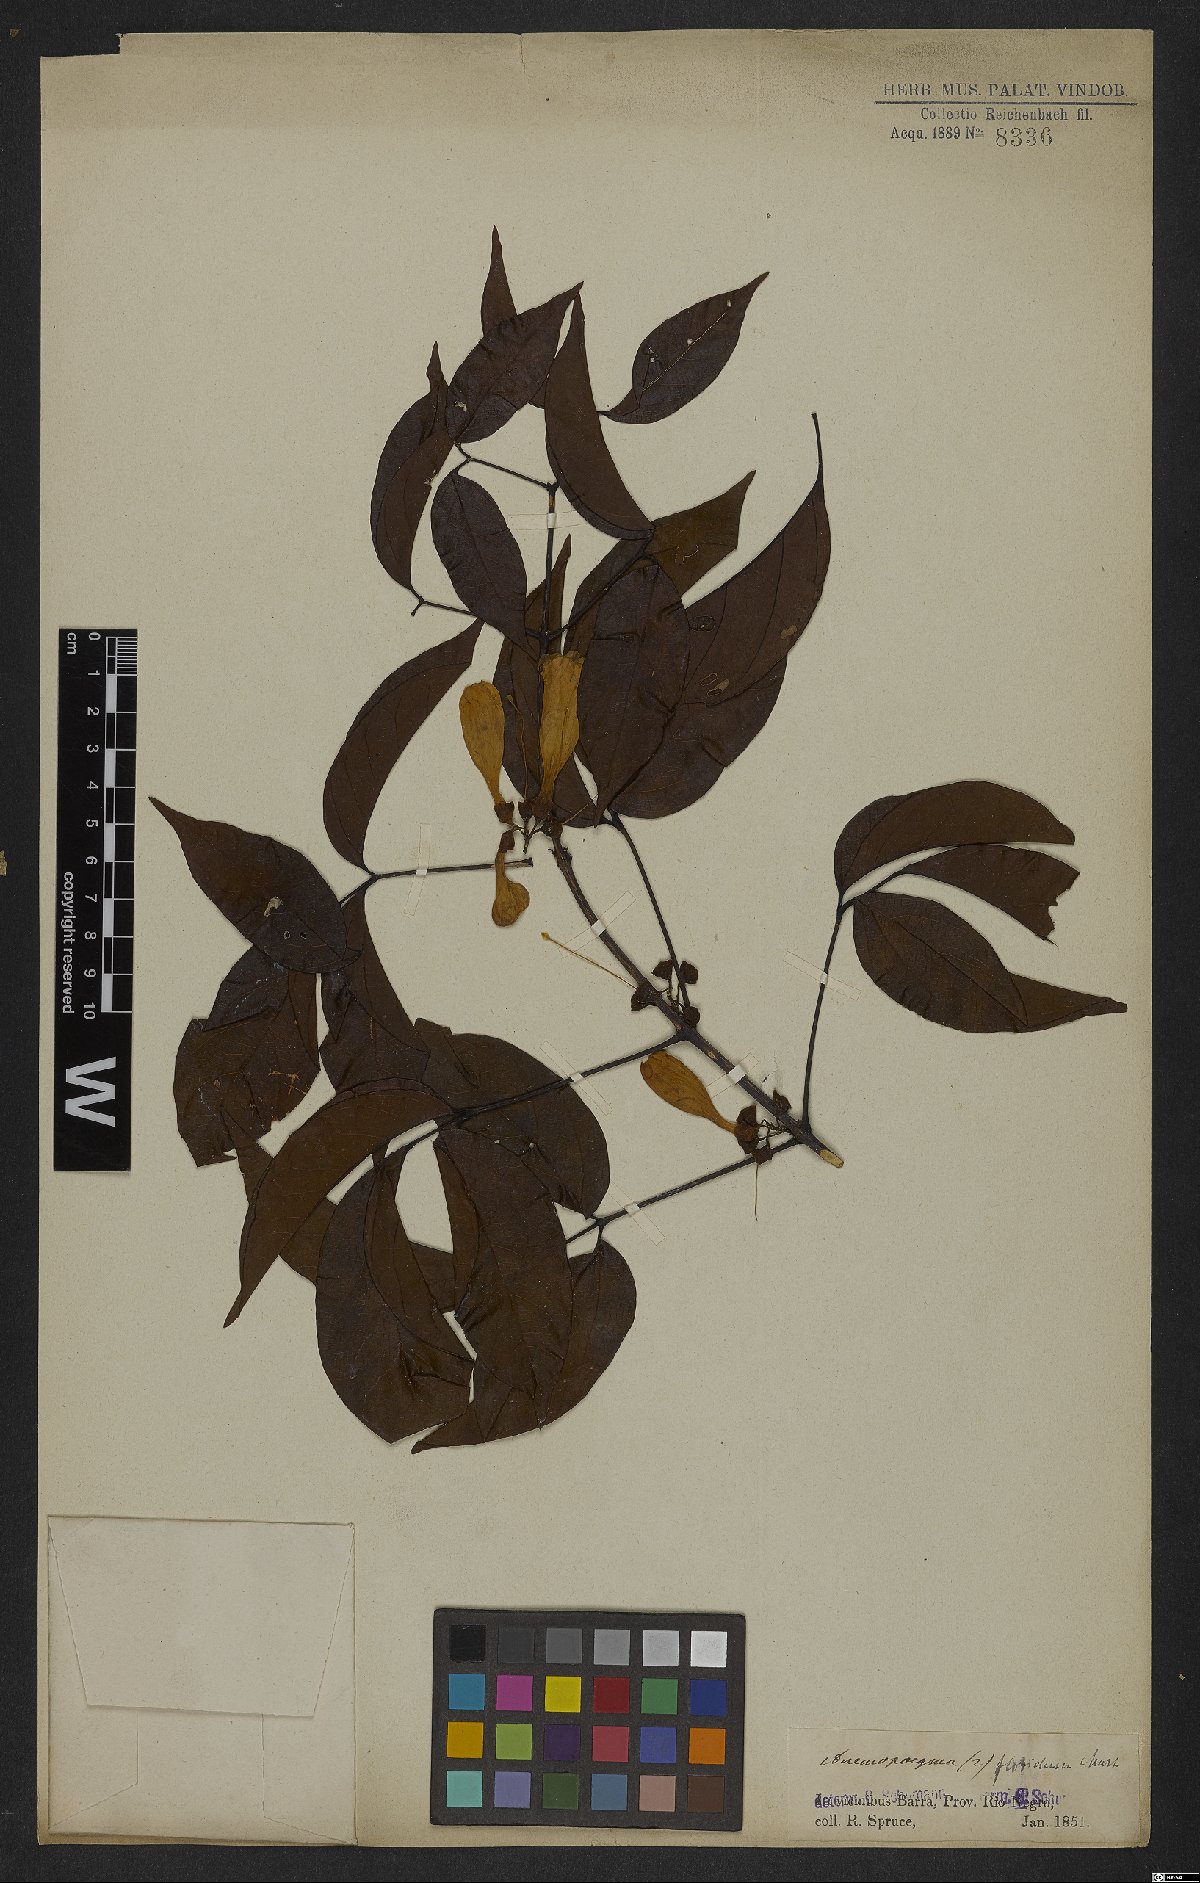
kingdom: Plantae
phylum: Tracheophyta
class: Magnoliopsida
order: Lamiales
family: Bignoniaceae
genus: Anemopaegma
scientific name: Anemopaegma floridum
